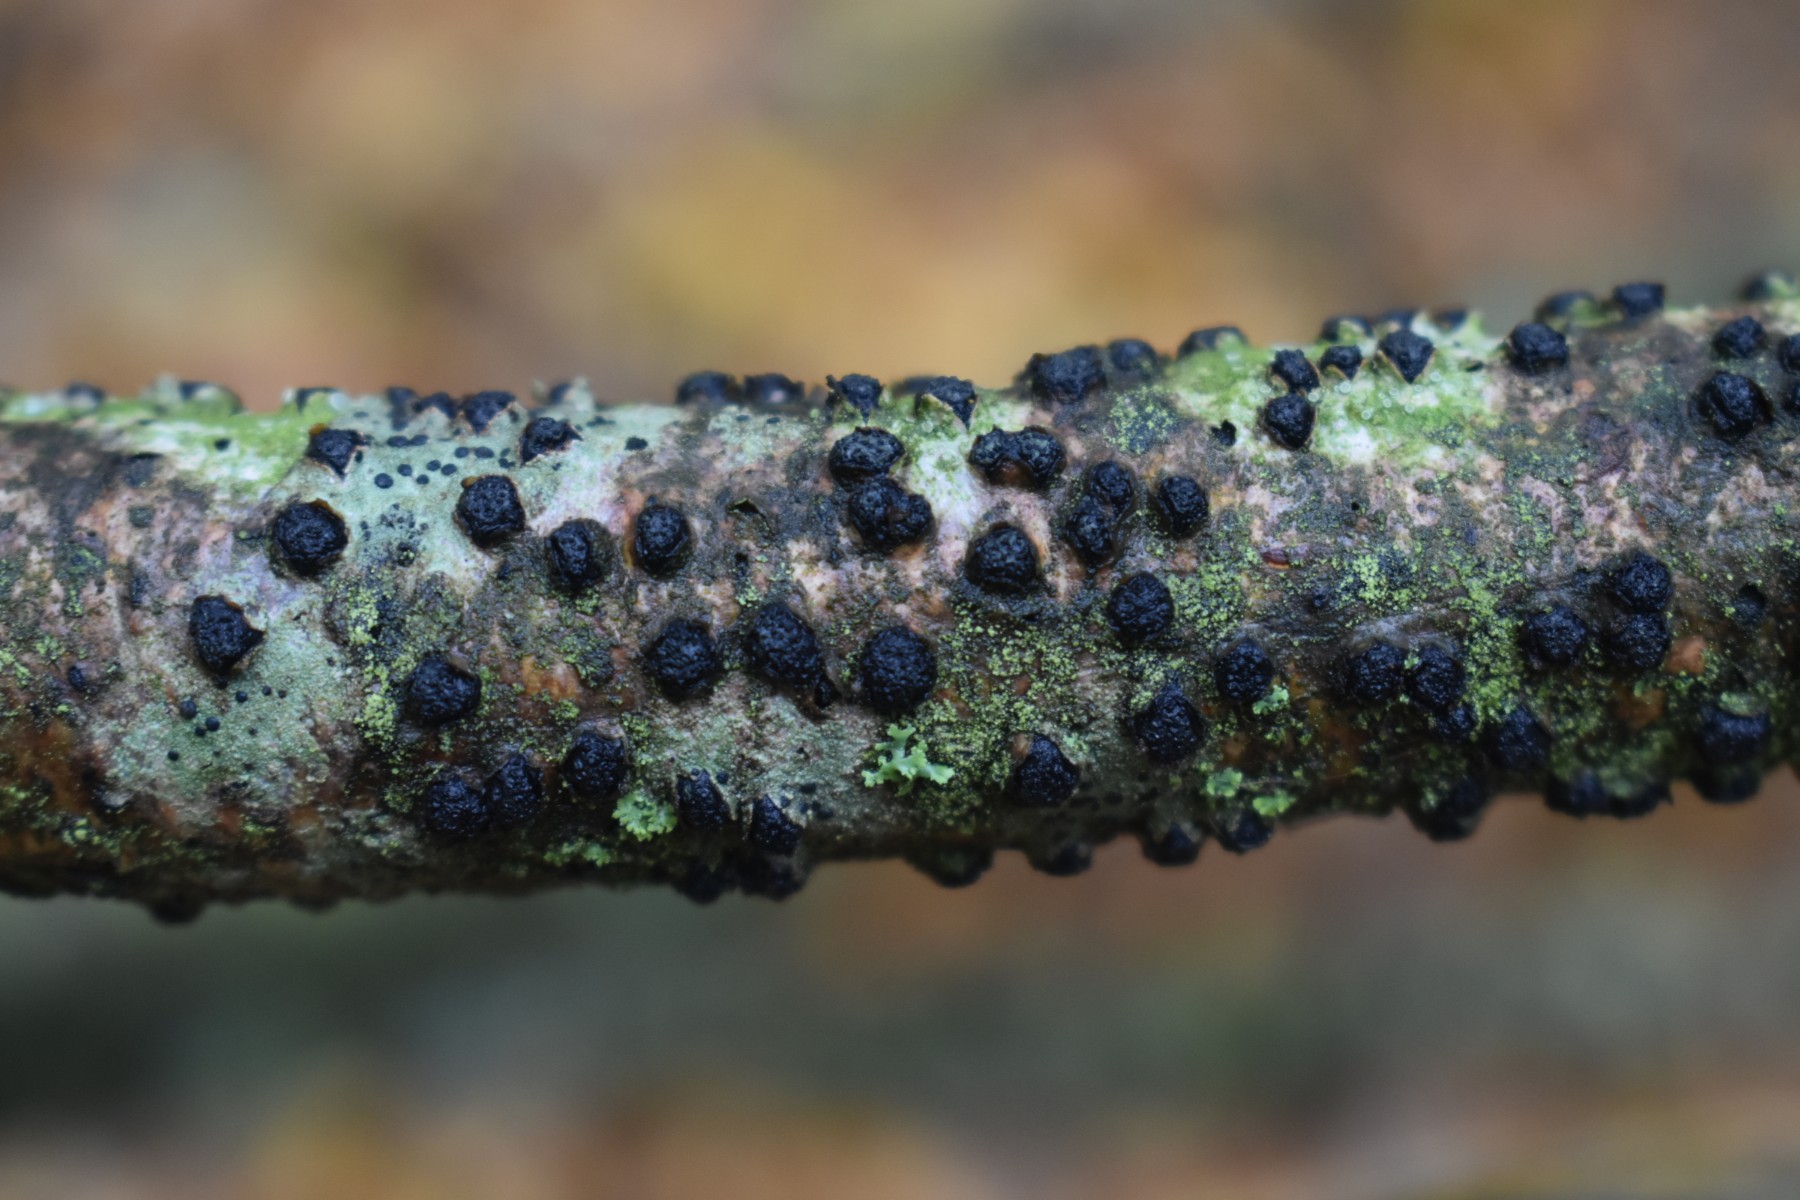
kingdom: Fungi
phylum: Ascomycota
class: Sordariomycetes
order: Xylariales
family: Diatrypaceae
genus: Diatrypella
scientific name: Diatrypella quercina
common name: ege-kulskorpe
